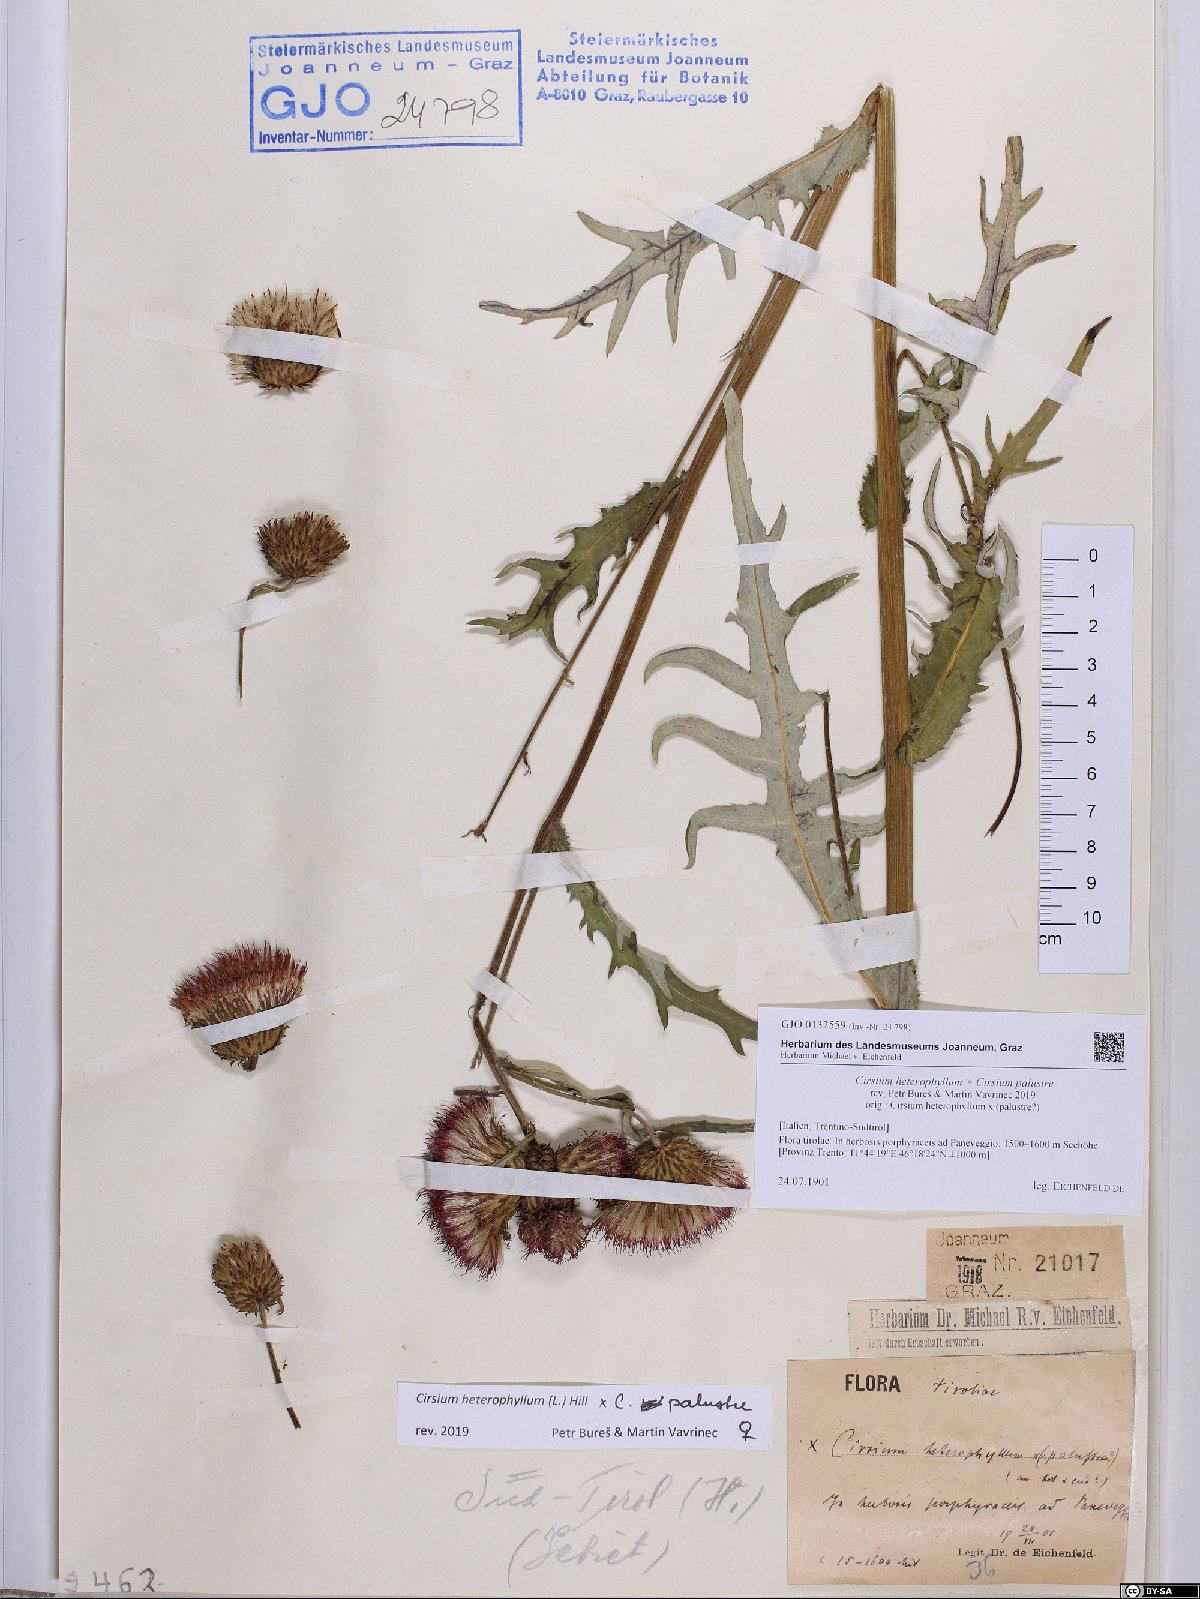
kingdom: Plantae
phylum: Tracheophyta
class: Magnoliopsida
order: Asterales
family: Asteraceae
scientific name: Asteraceae
